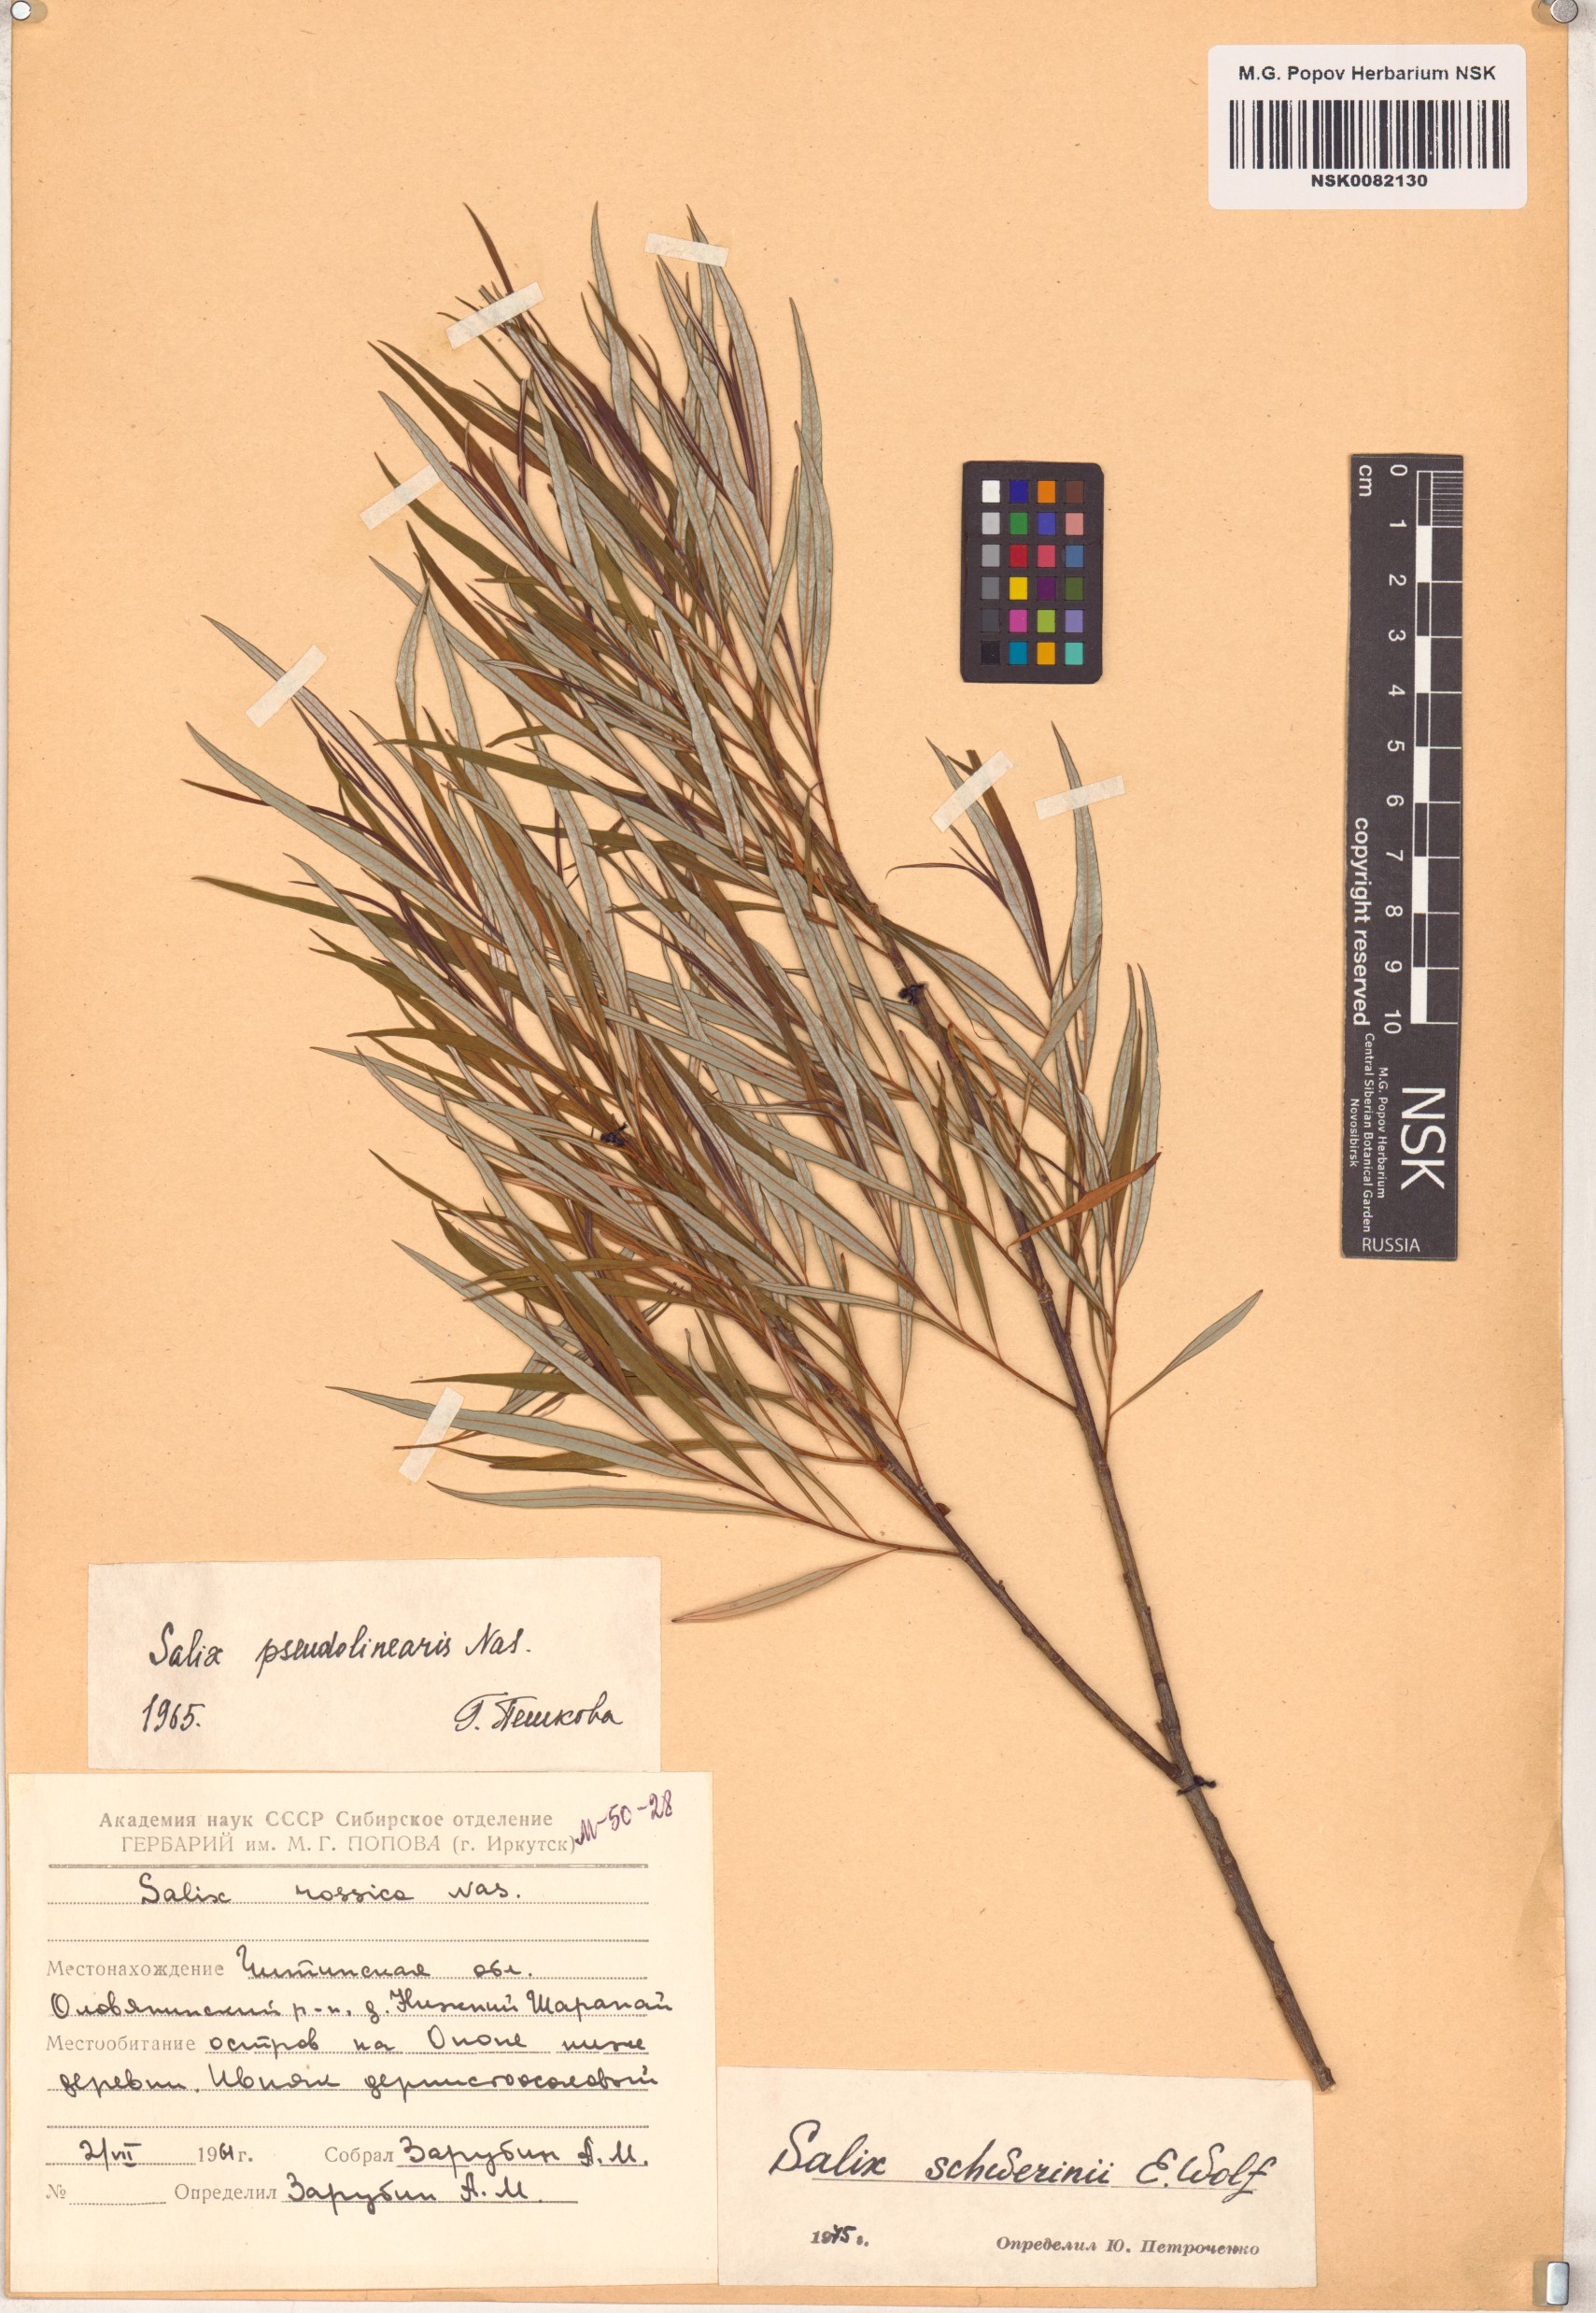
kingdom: Plantae
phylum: Tracheophyta
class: Magnoliopsida
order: Malpighiales
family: Salicaceae
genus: Salix
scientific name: Salix schwerinii
